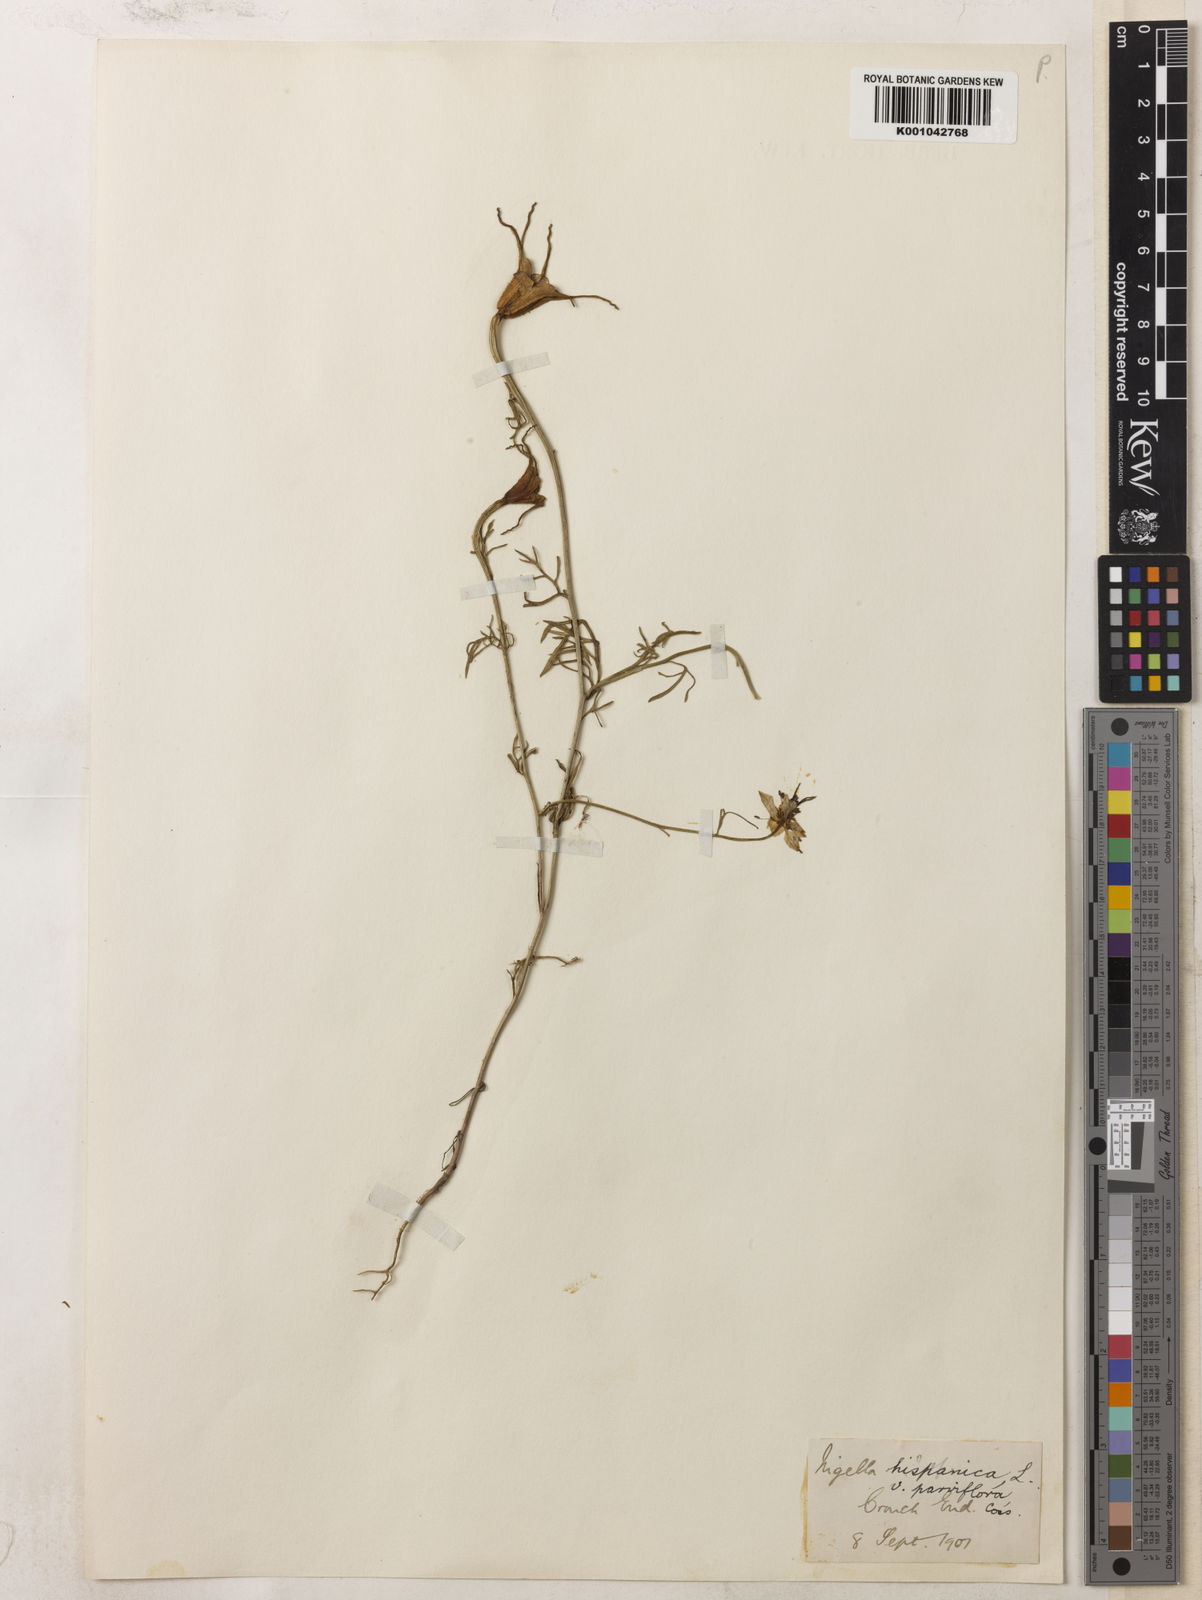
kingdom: Plantae
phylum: Tracheophyta
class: Magnoliopsida
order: Ranunculales
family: Ranunculaceae
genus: Nigella
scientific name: Nigella hispanica
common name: Fennel-flower
